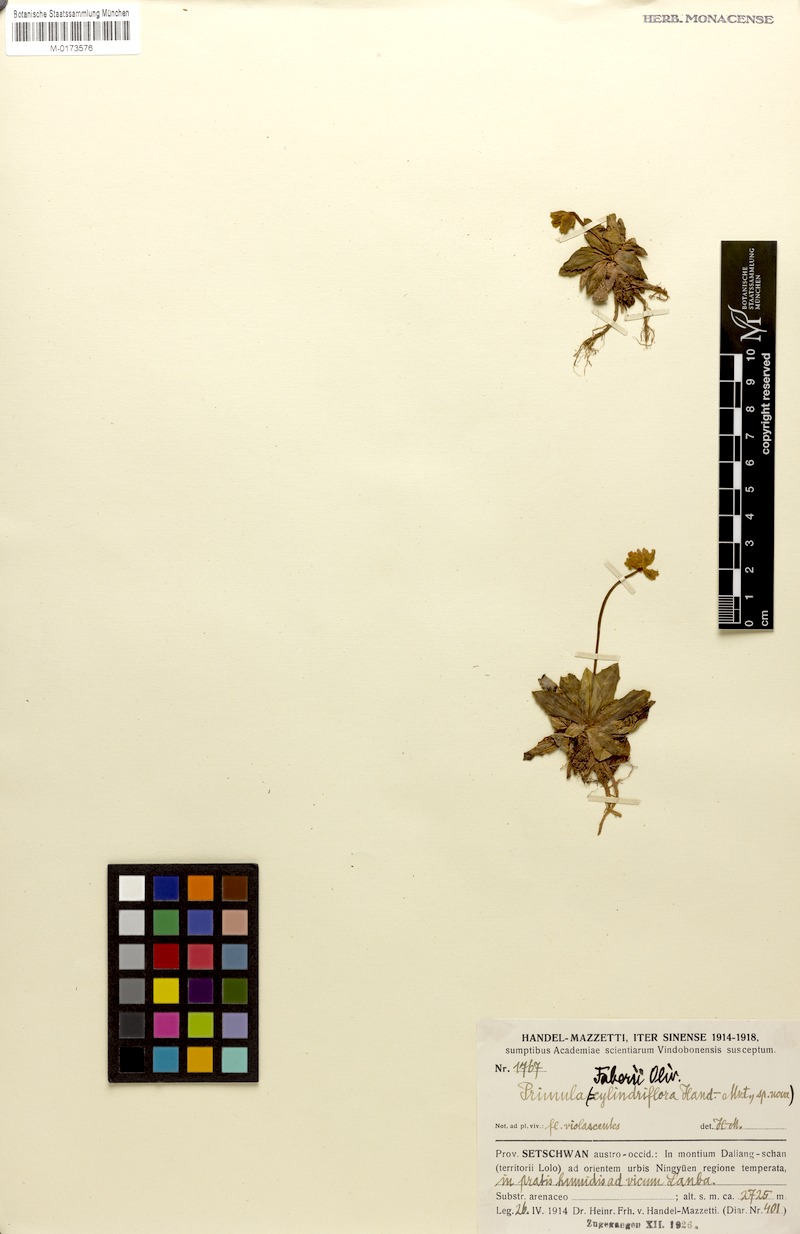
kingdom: Plantae
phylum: Tracheophyta
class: Magnoliopsida
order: Ericales
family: Primulaceae
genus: Primula
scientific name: Primula faberi
